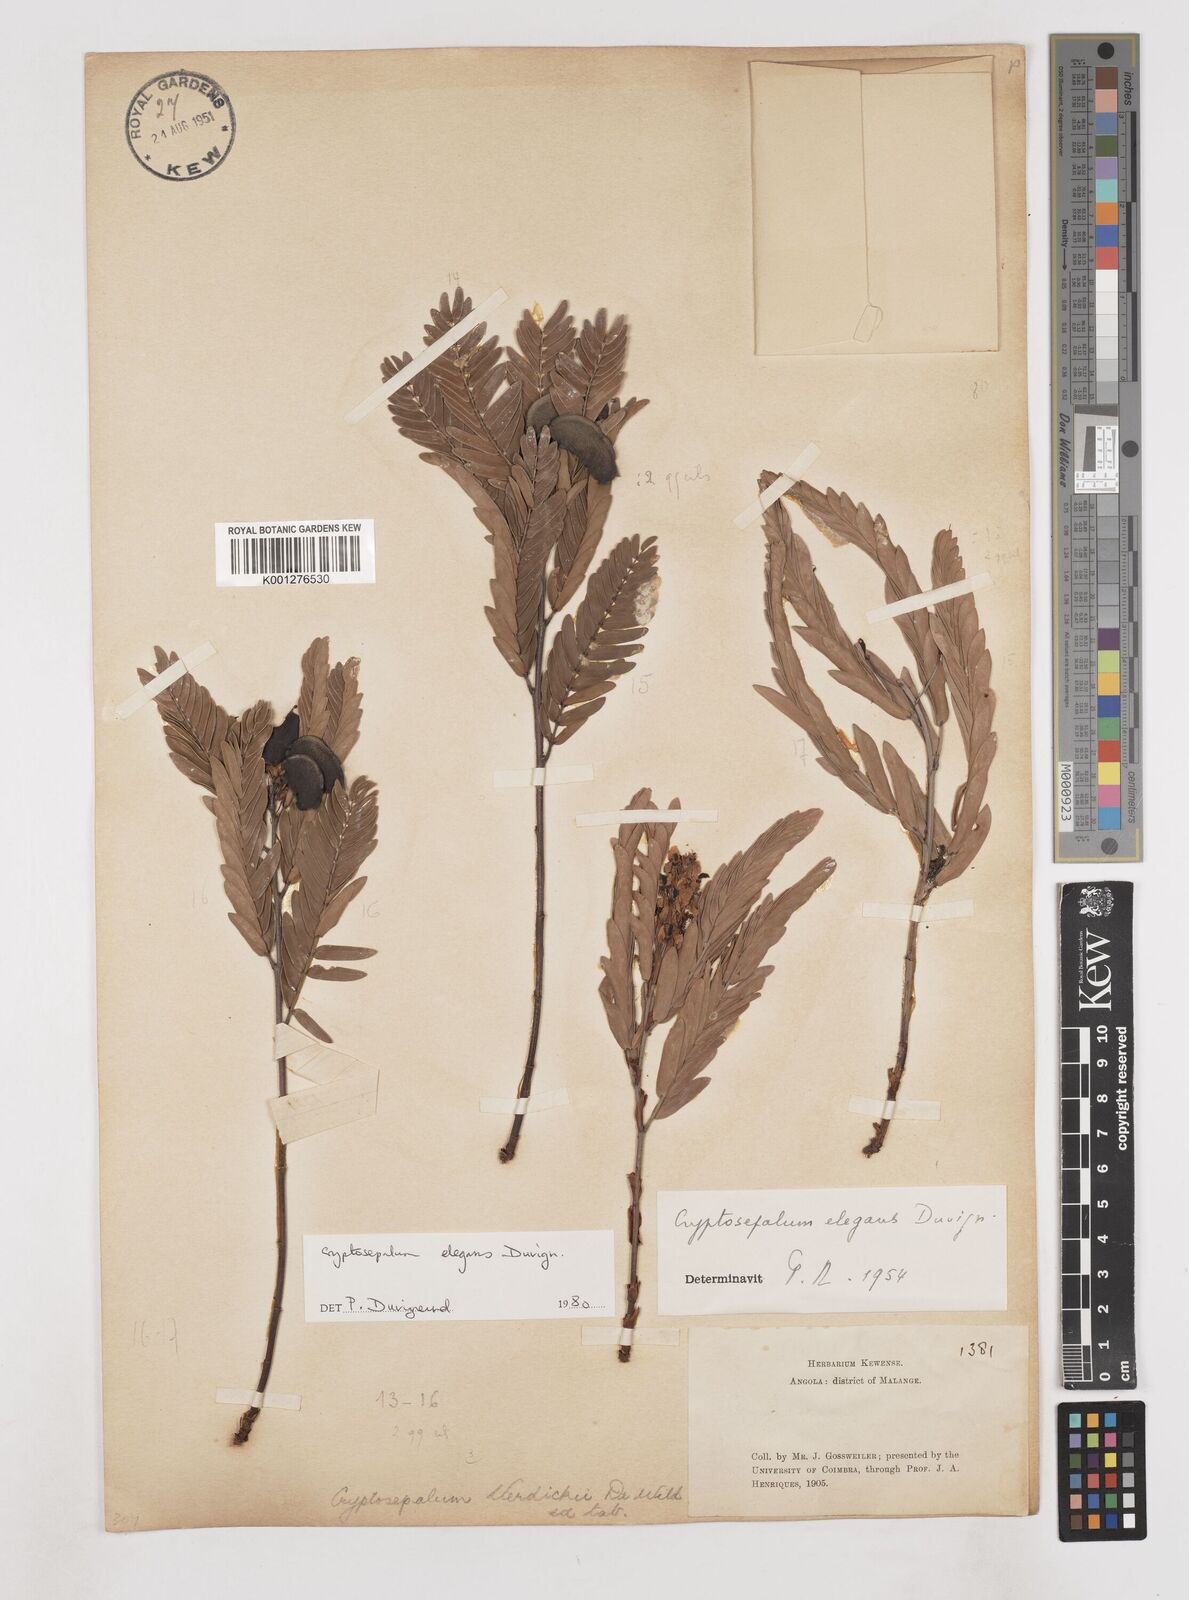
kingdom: Plantae
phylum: Tracheophyta
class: Magnoliopsida
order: Fabales
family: Fabaceae
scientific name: Fabaceae
